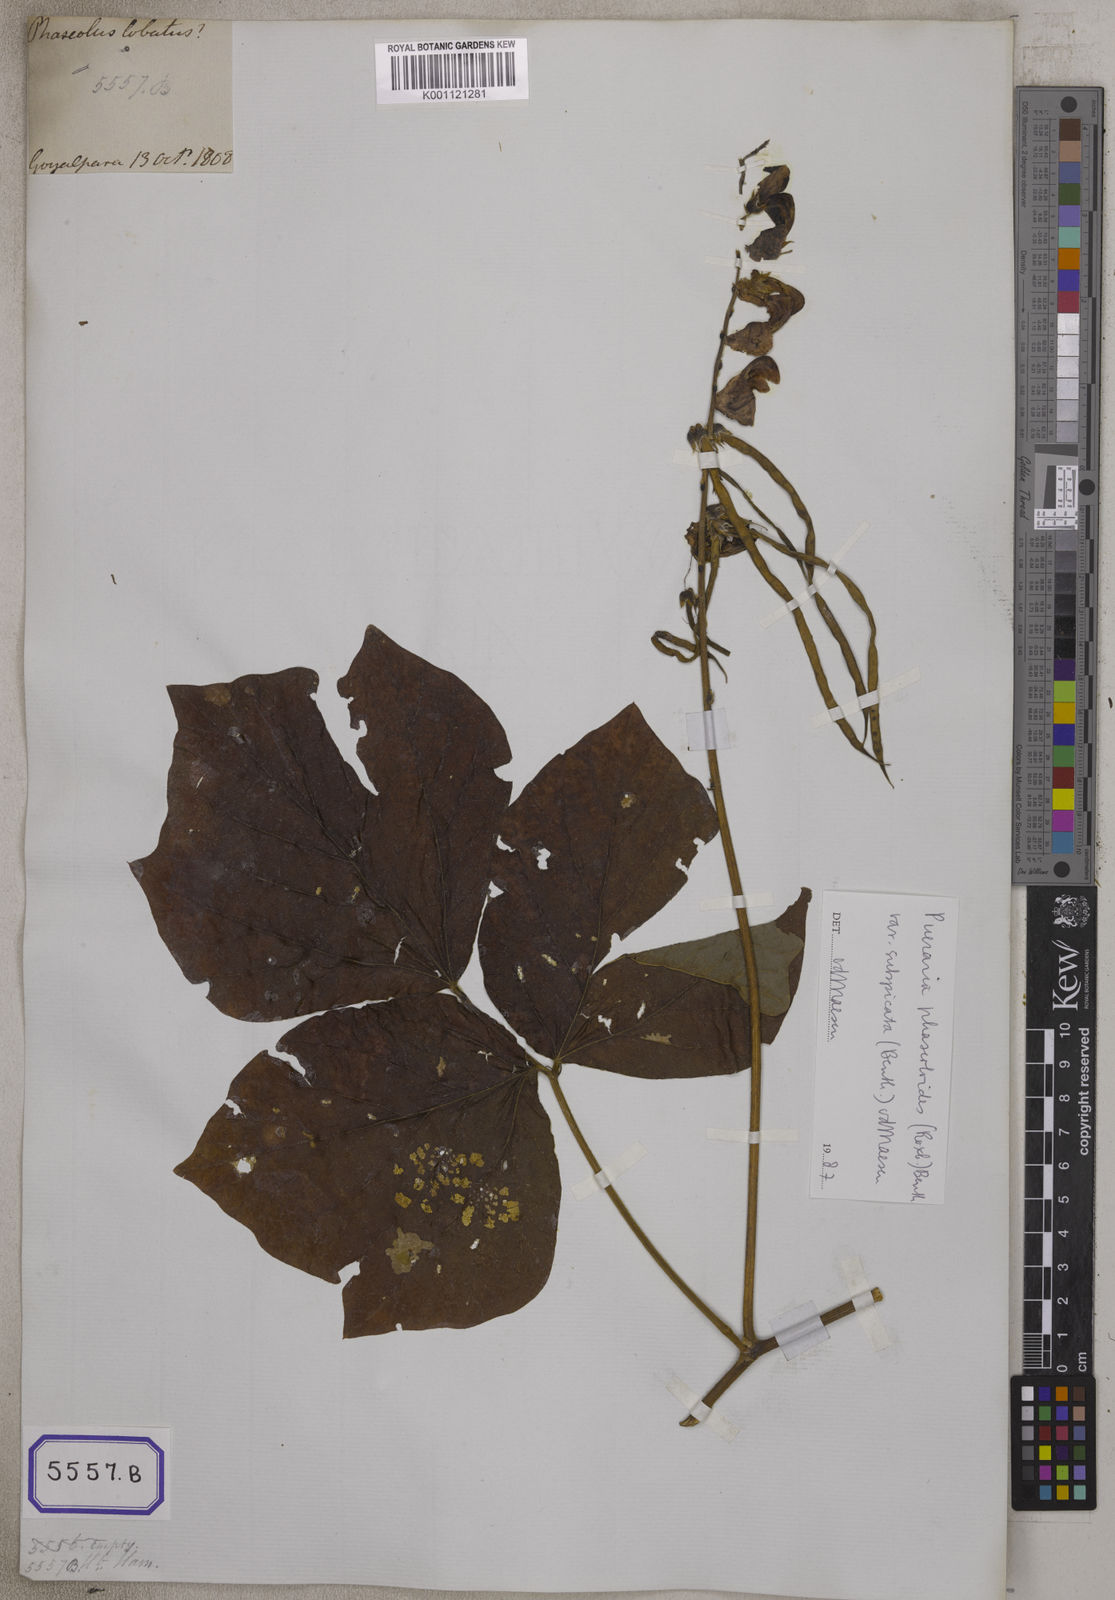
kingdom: Plantae
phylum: Tracheophyta
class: Magnoliopsida
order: Fabales
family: Fabaceae
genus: Dolichos
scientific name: Dolichos
